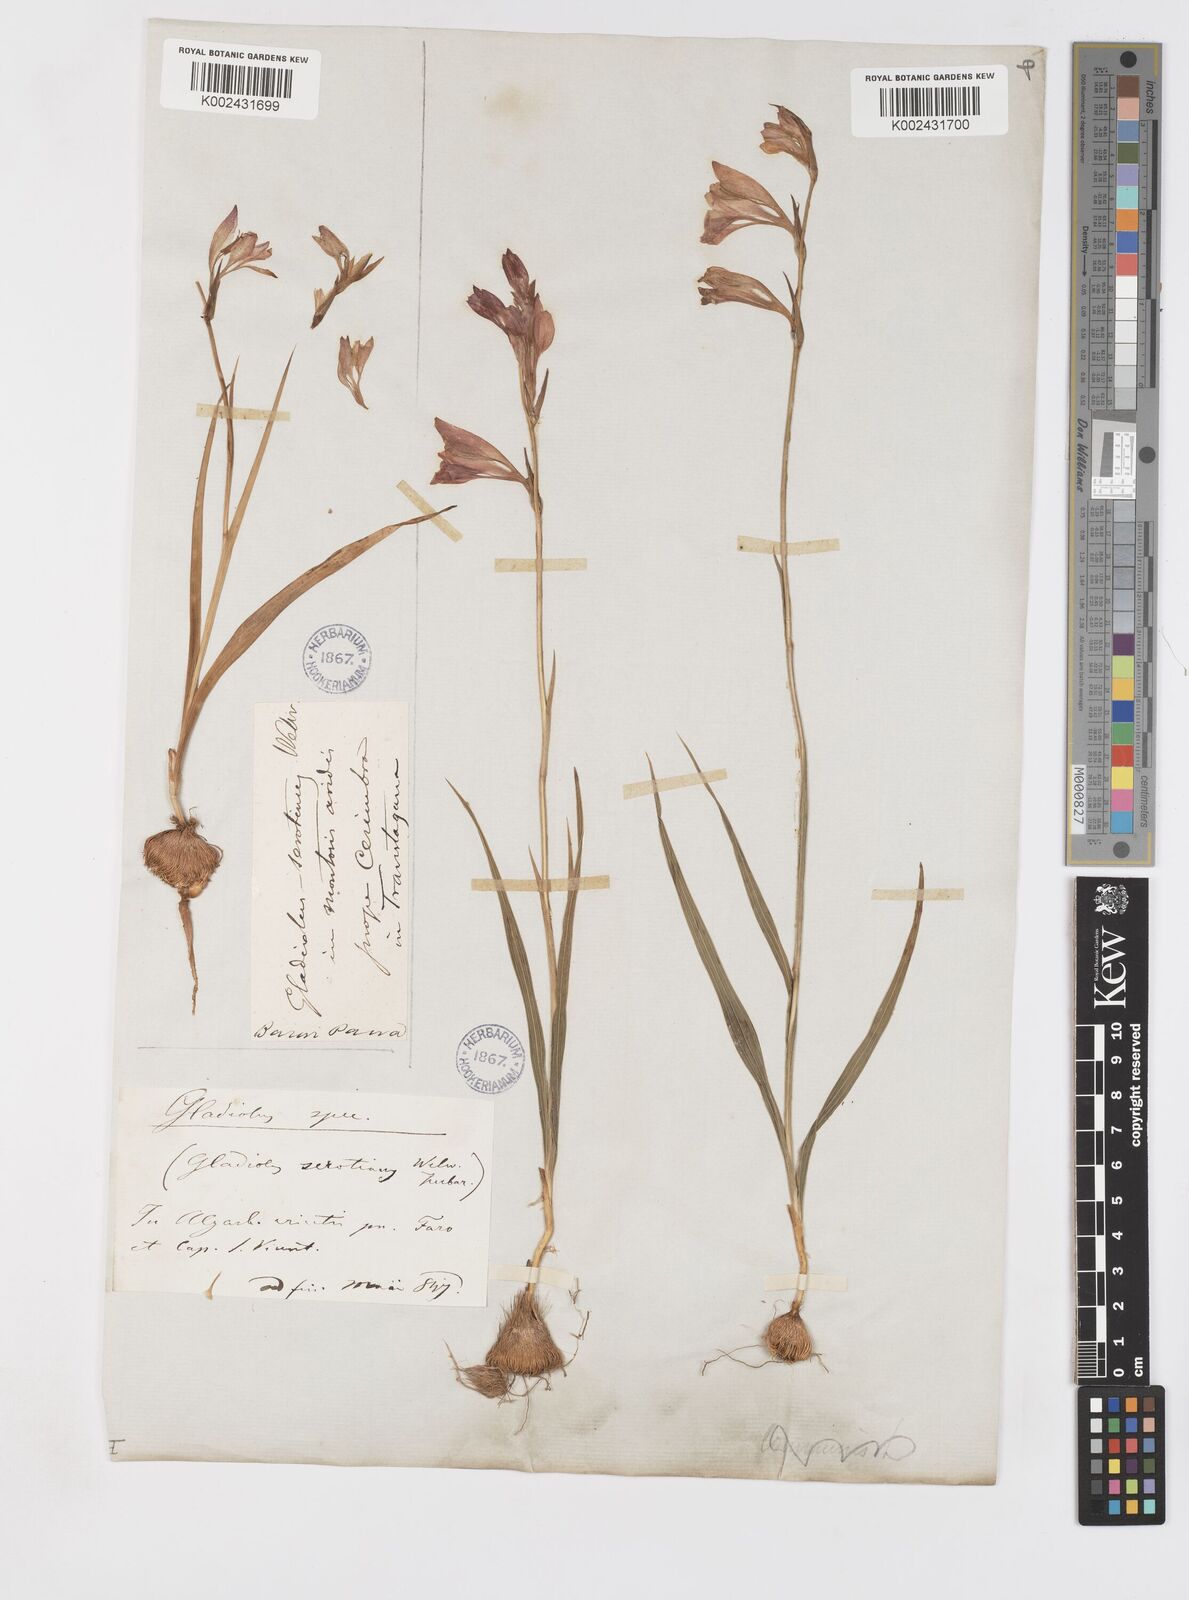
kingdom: Plantae
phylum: Tracheophyta
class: Liliopsida
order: Asparagales
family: Iridaceae
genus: Gladiolus
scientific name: Gladiolus illyricus
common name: Wild gladiolus
